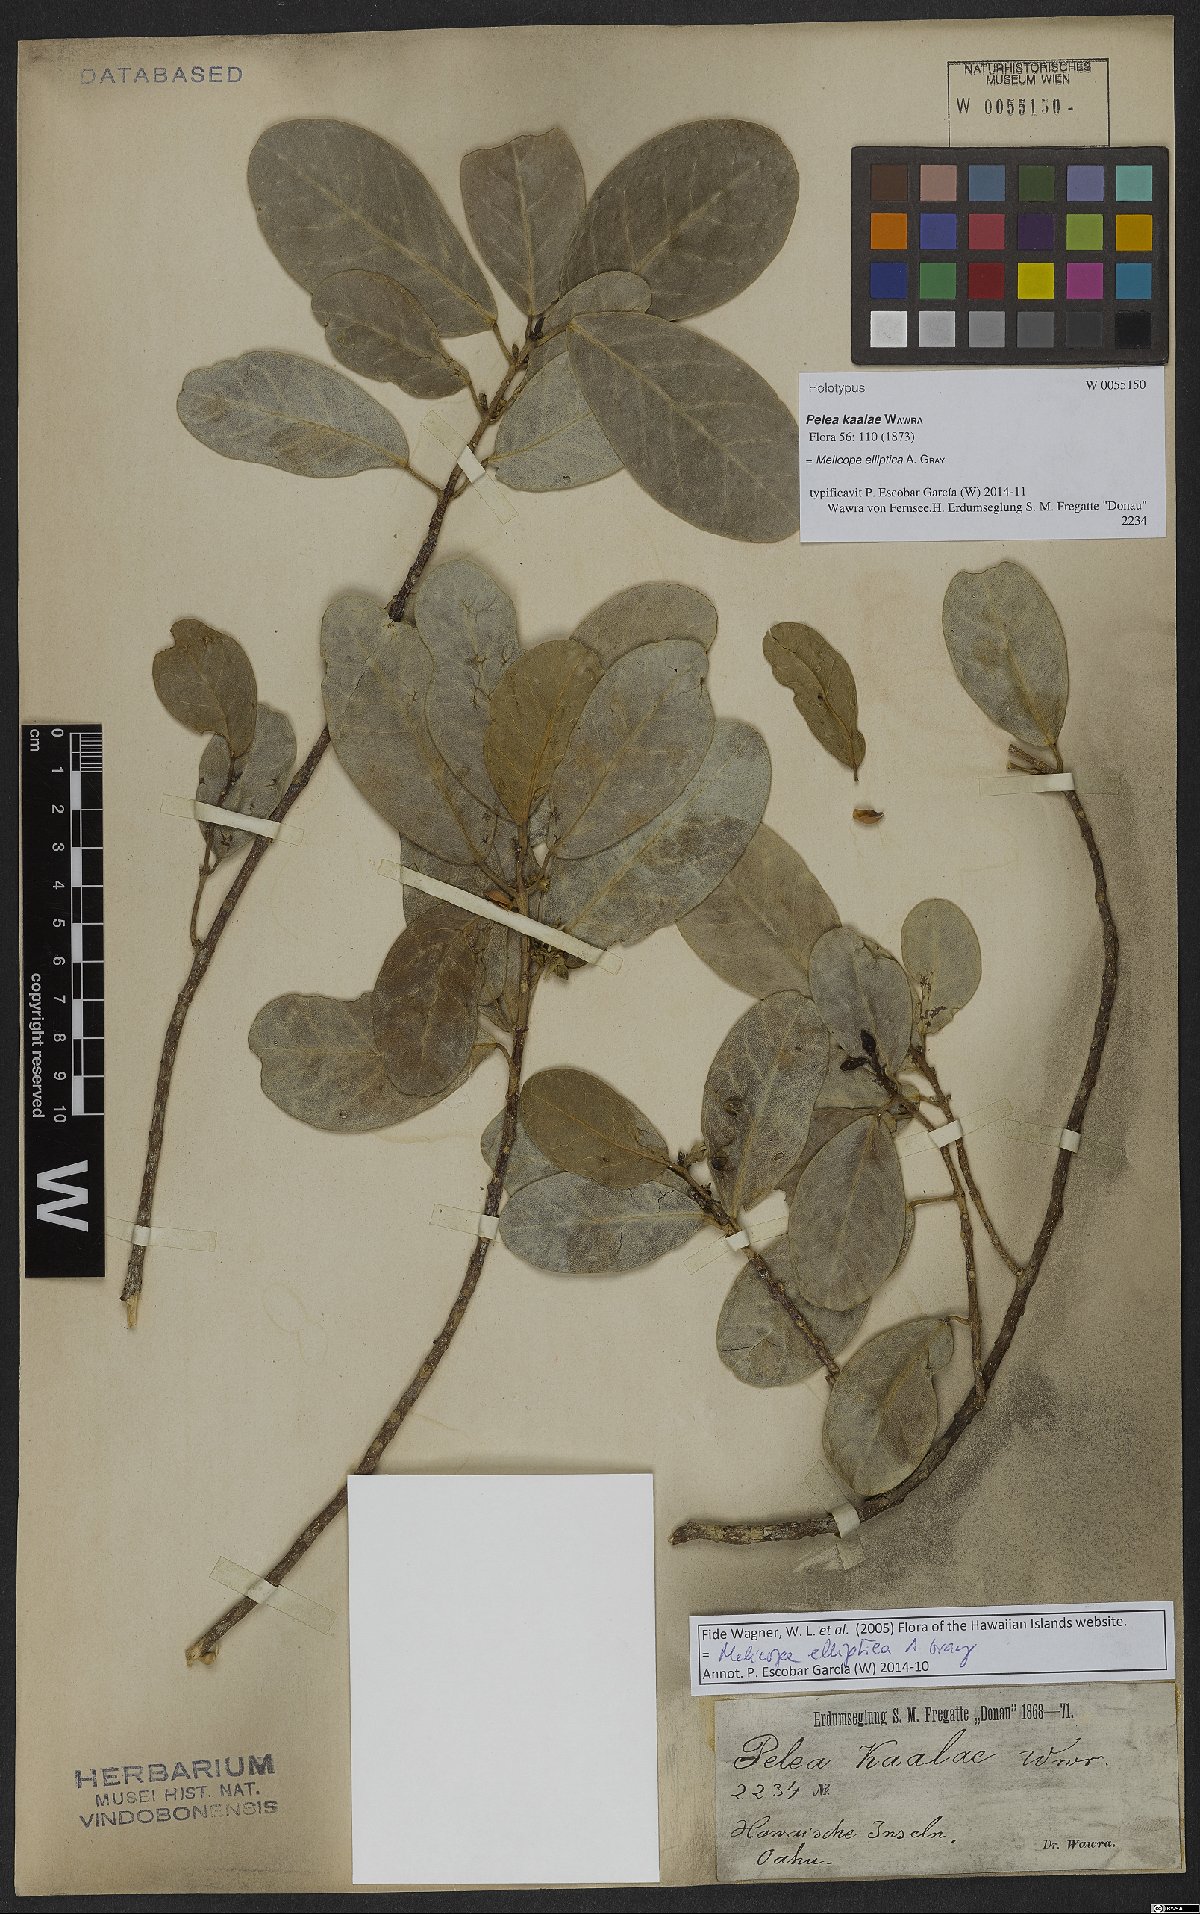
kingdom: Plantae
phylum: Tracheophyta
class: Magnoliopsida
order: Sapindales
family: Rutaceae
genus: Melicope
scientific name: Melicope elliptica
